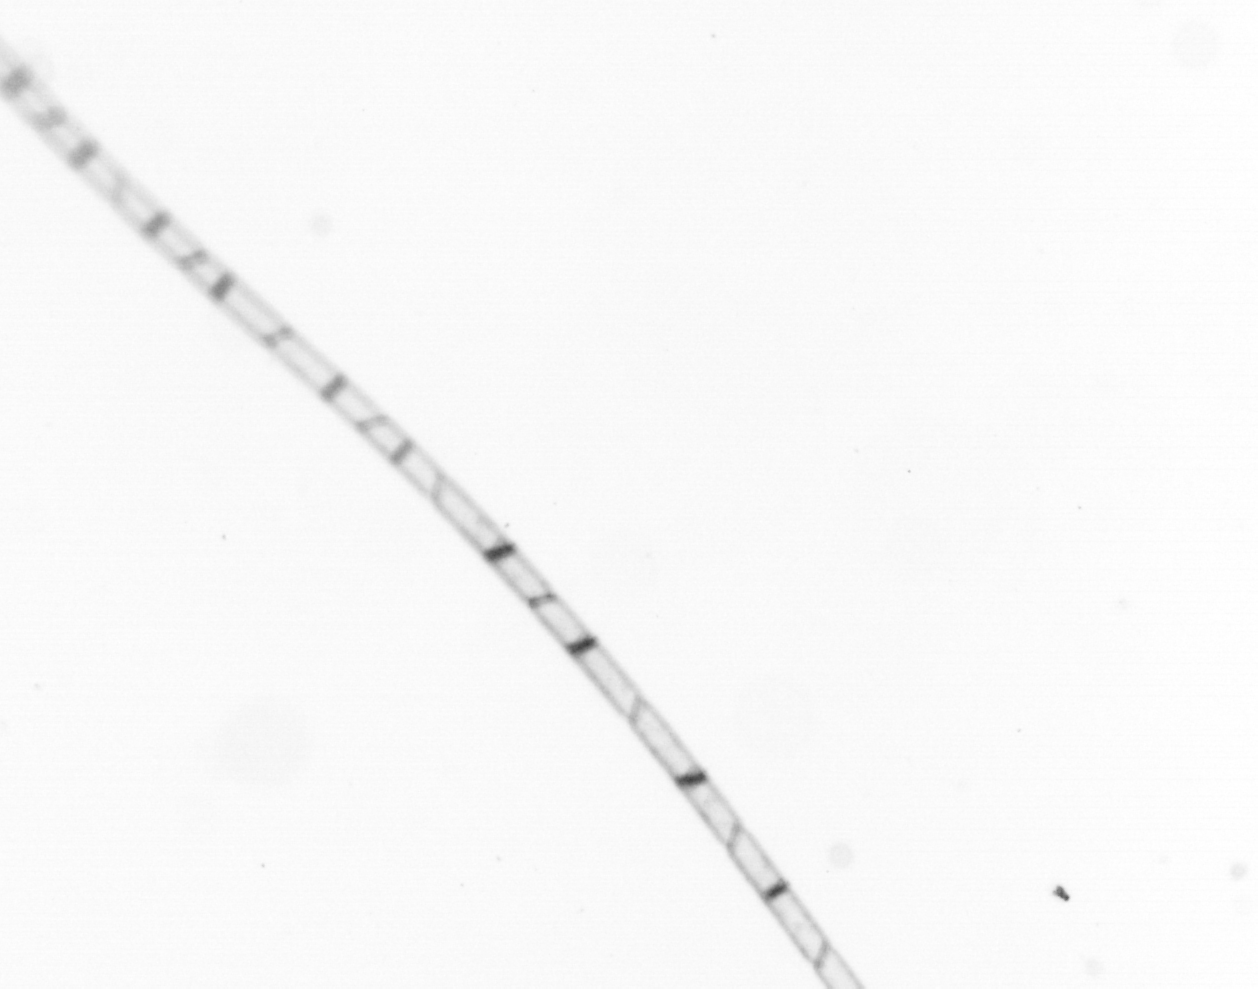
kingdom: Chromista
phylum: Ochrophyta
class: Bacillariophyceae
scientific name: Bacillariophyceae
